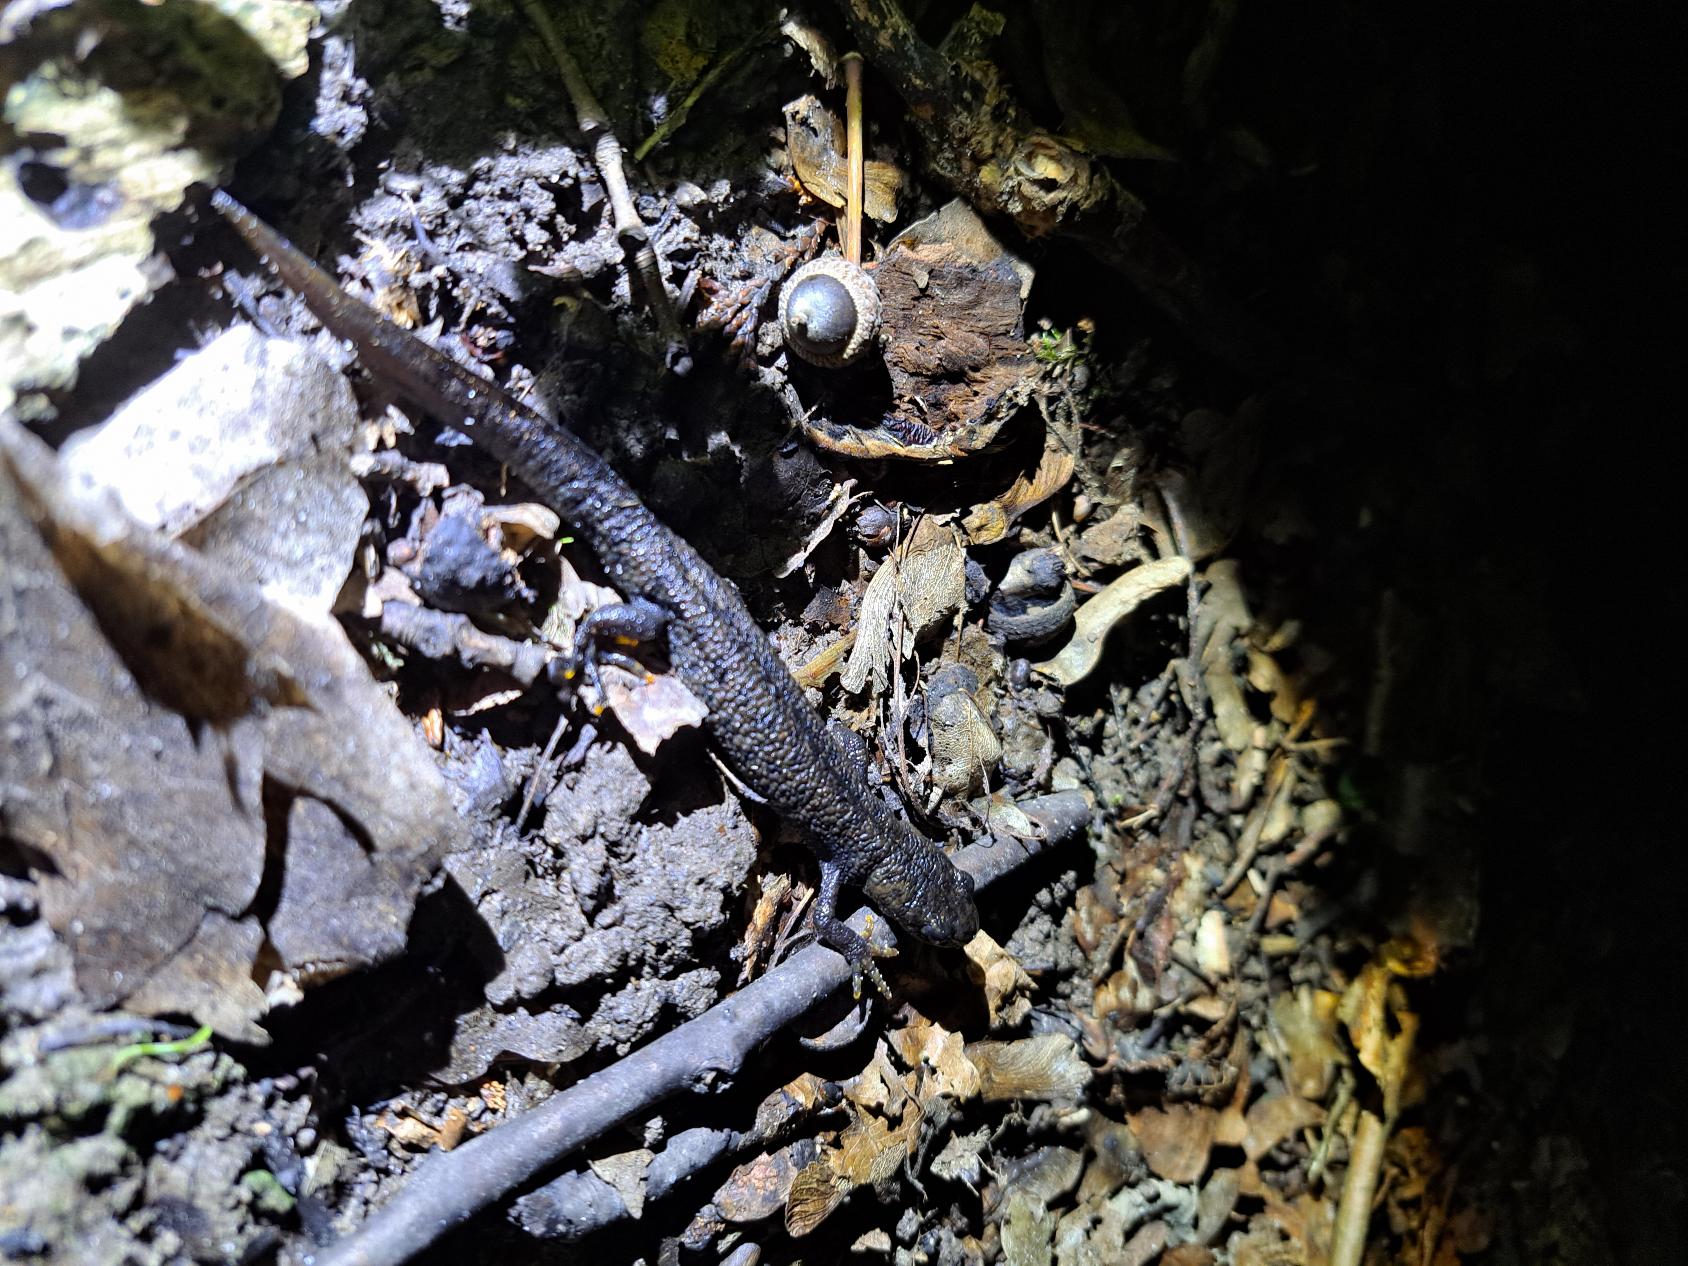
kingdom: Animalia
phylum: Chordata
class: Amphibia
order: Caudata
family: Salamandridae
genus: Triturus
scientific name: Triturus cristatus
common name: Stor vandsalamander
